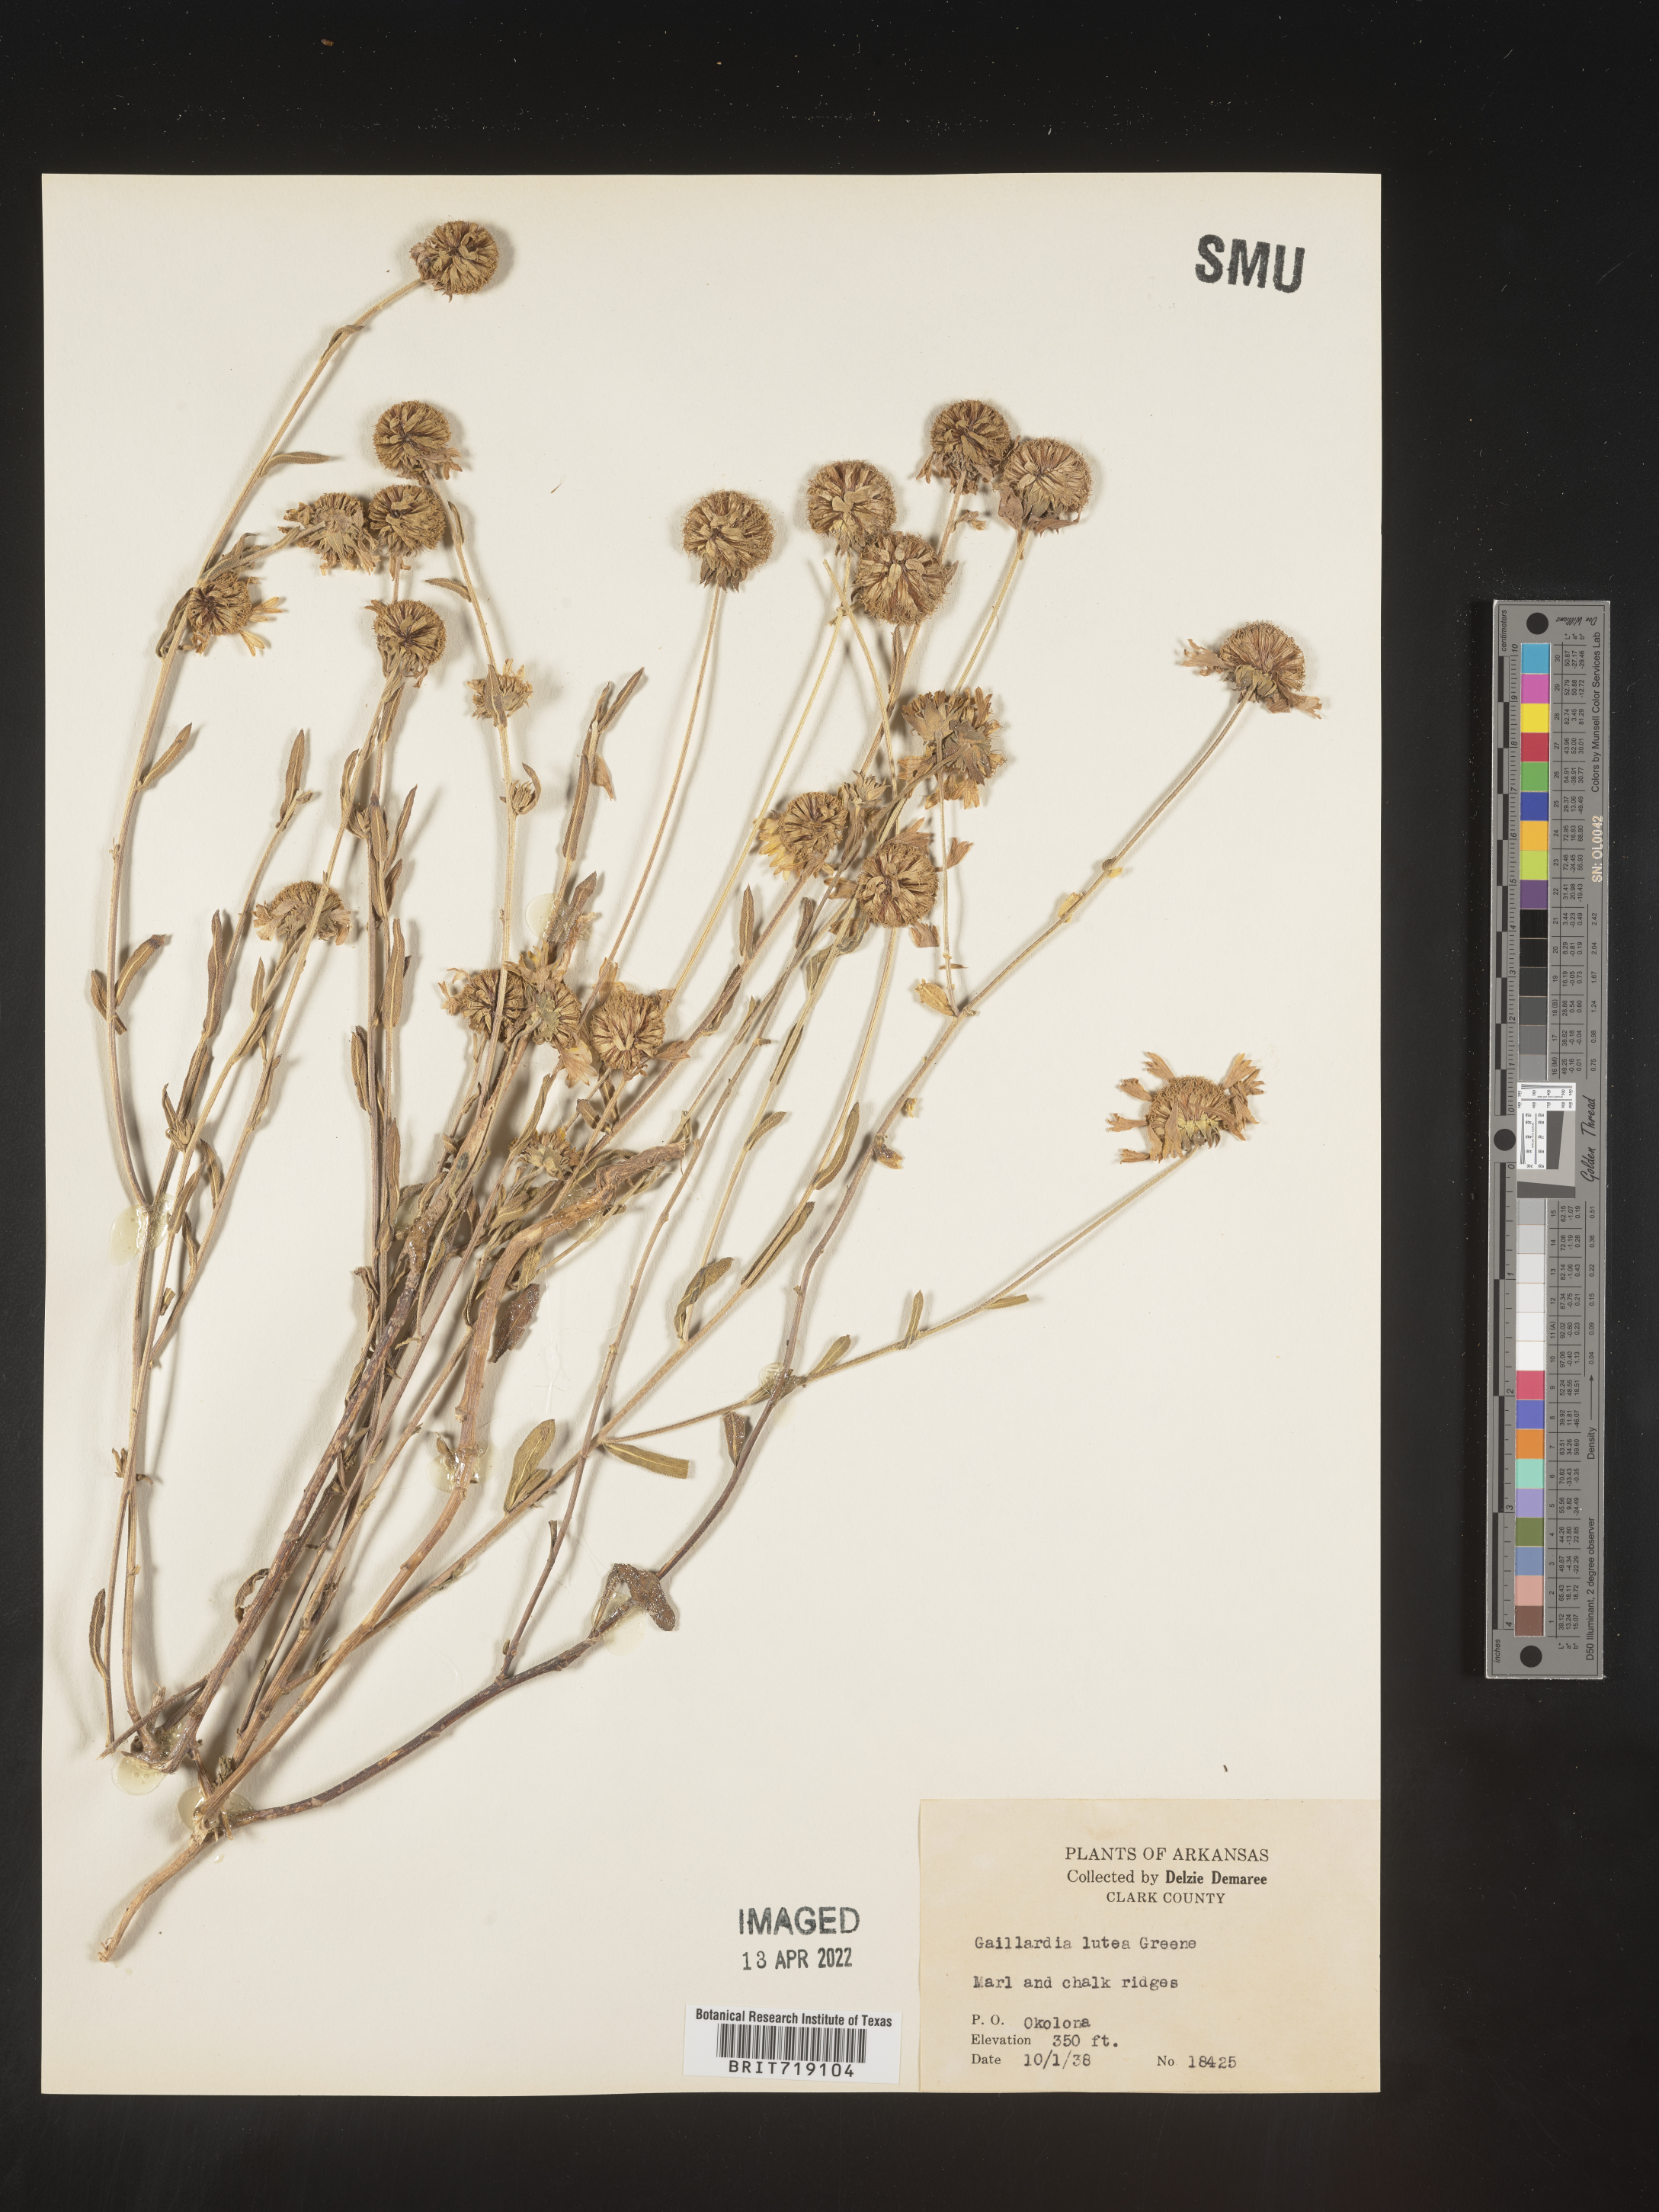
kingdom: Plantae
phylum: Tracheophyta
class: Magnoliopsida
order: Asterales
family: Asteraceae
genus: Gaillardia
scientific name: Gaillardia aestivalis
